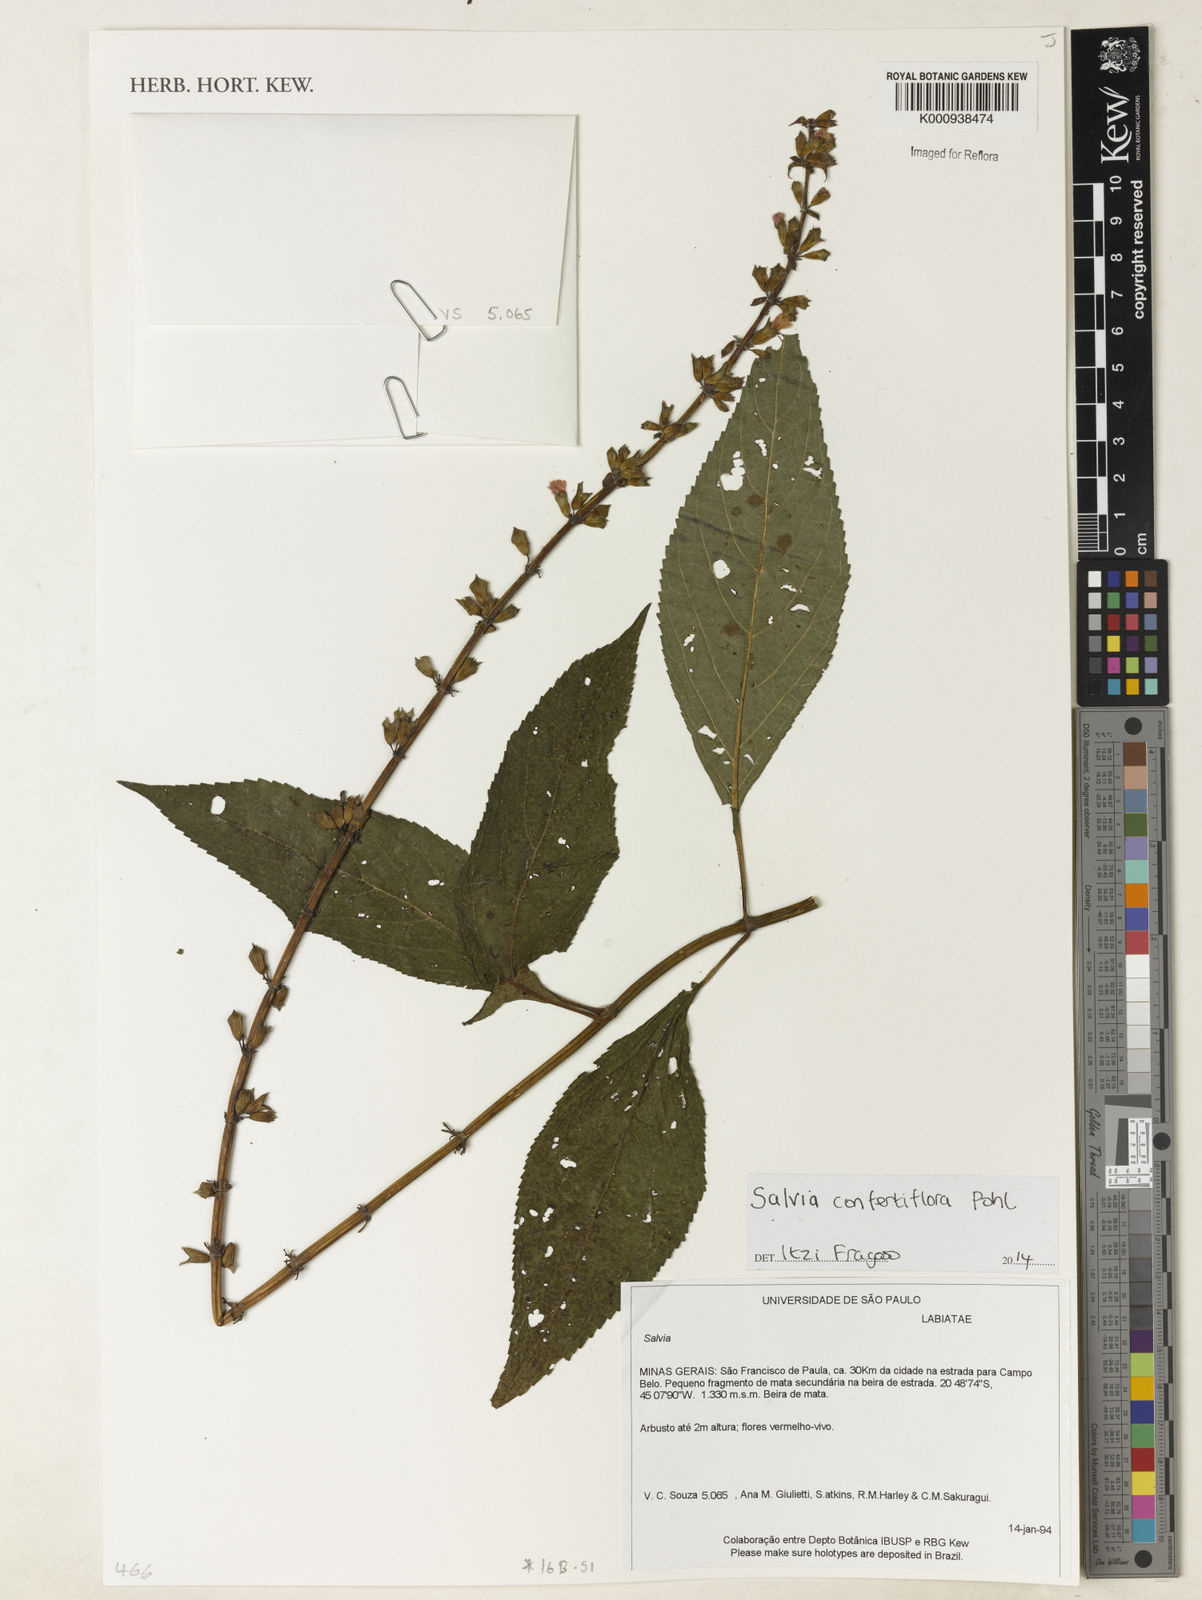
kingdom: Plantae
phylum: Tracheophyta
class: Magnoliopsida
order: Lamiales
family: Lamiaceae
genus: Salvia
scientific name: Salvia confertiflora
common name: Sabra-spike sage
